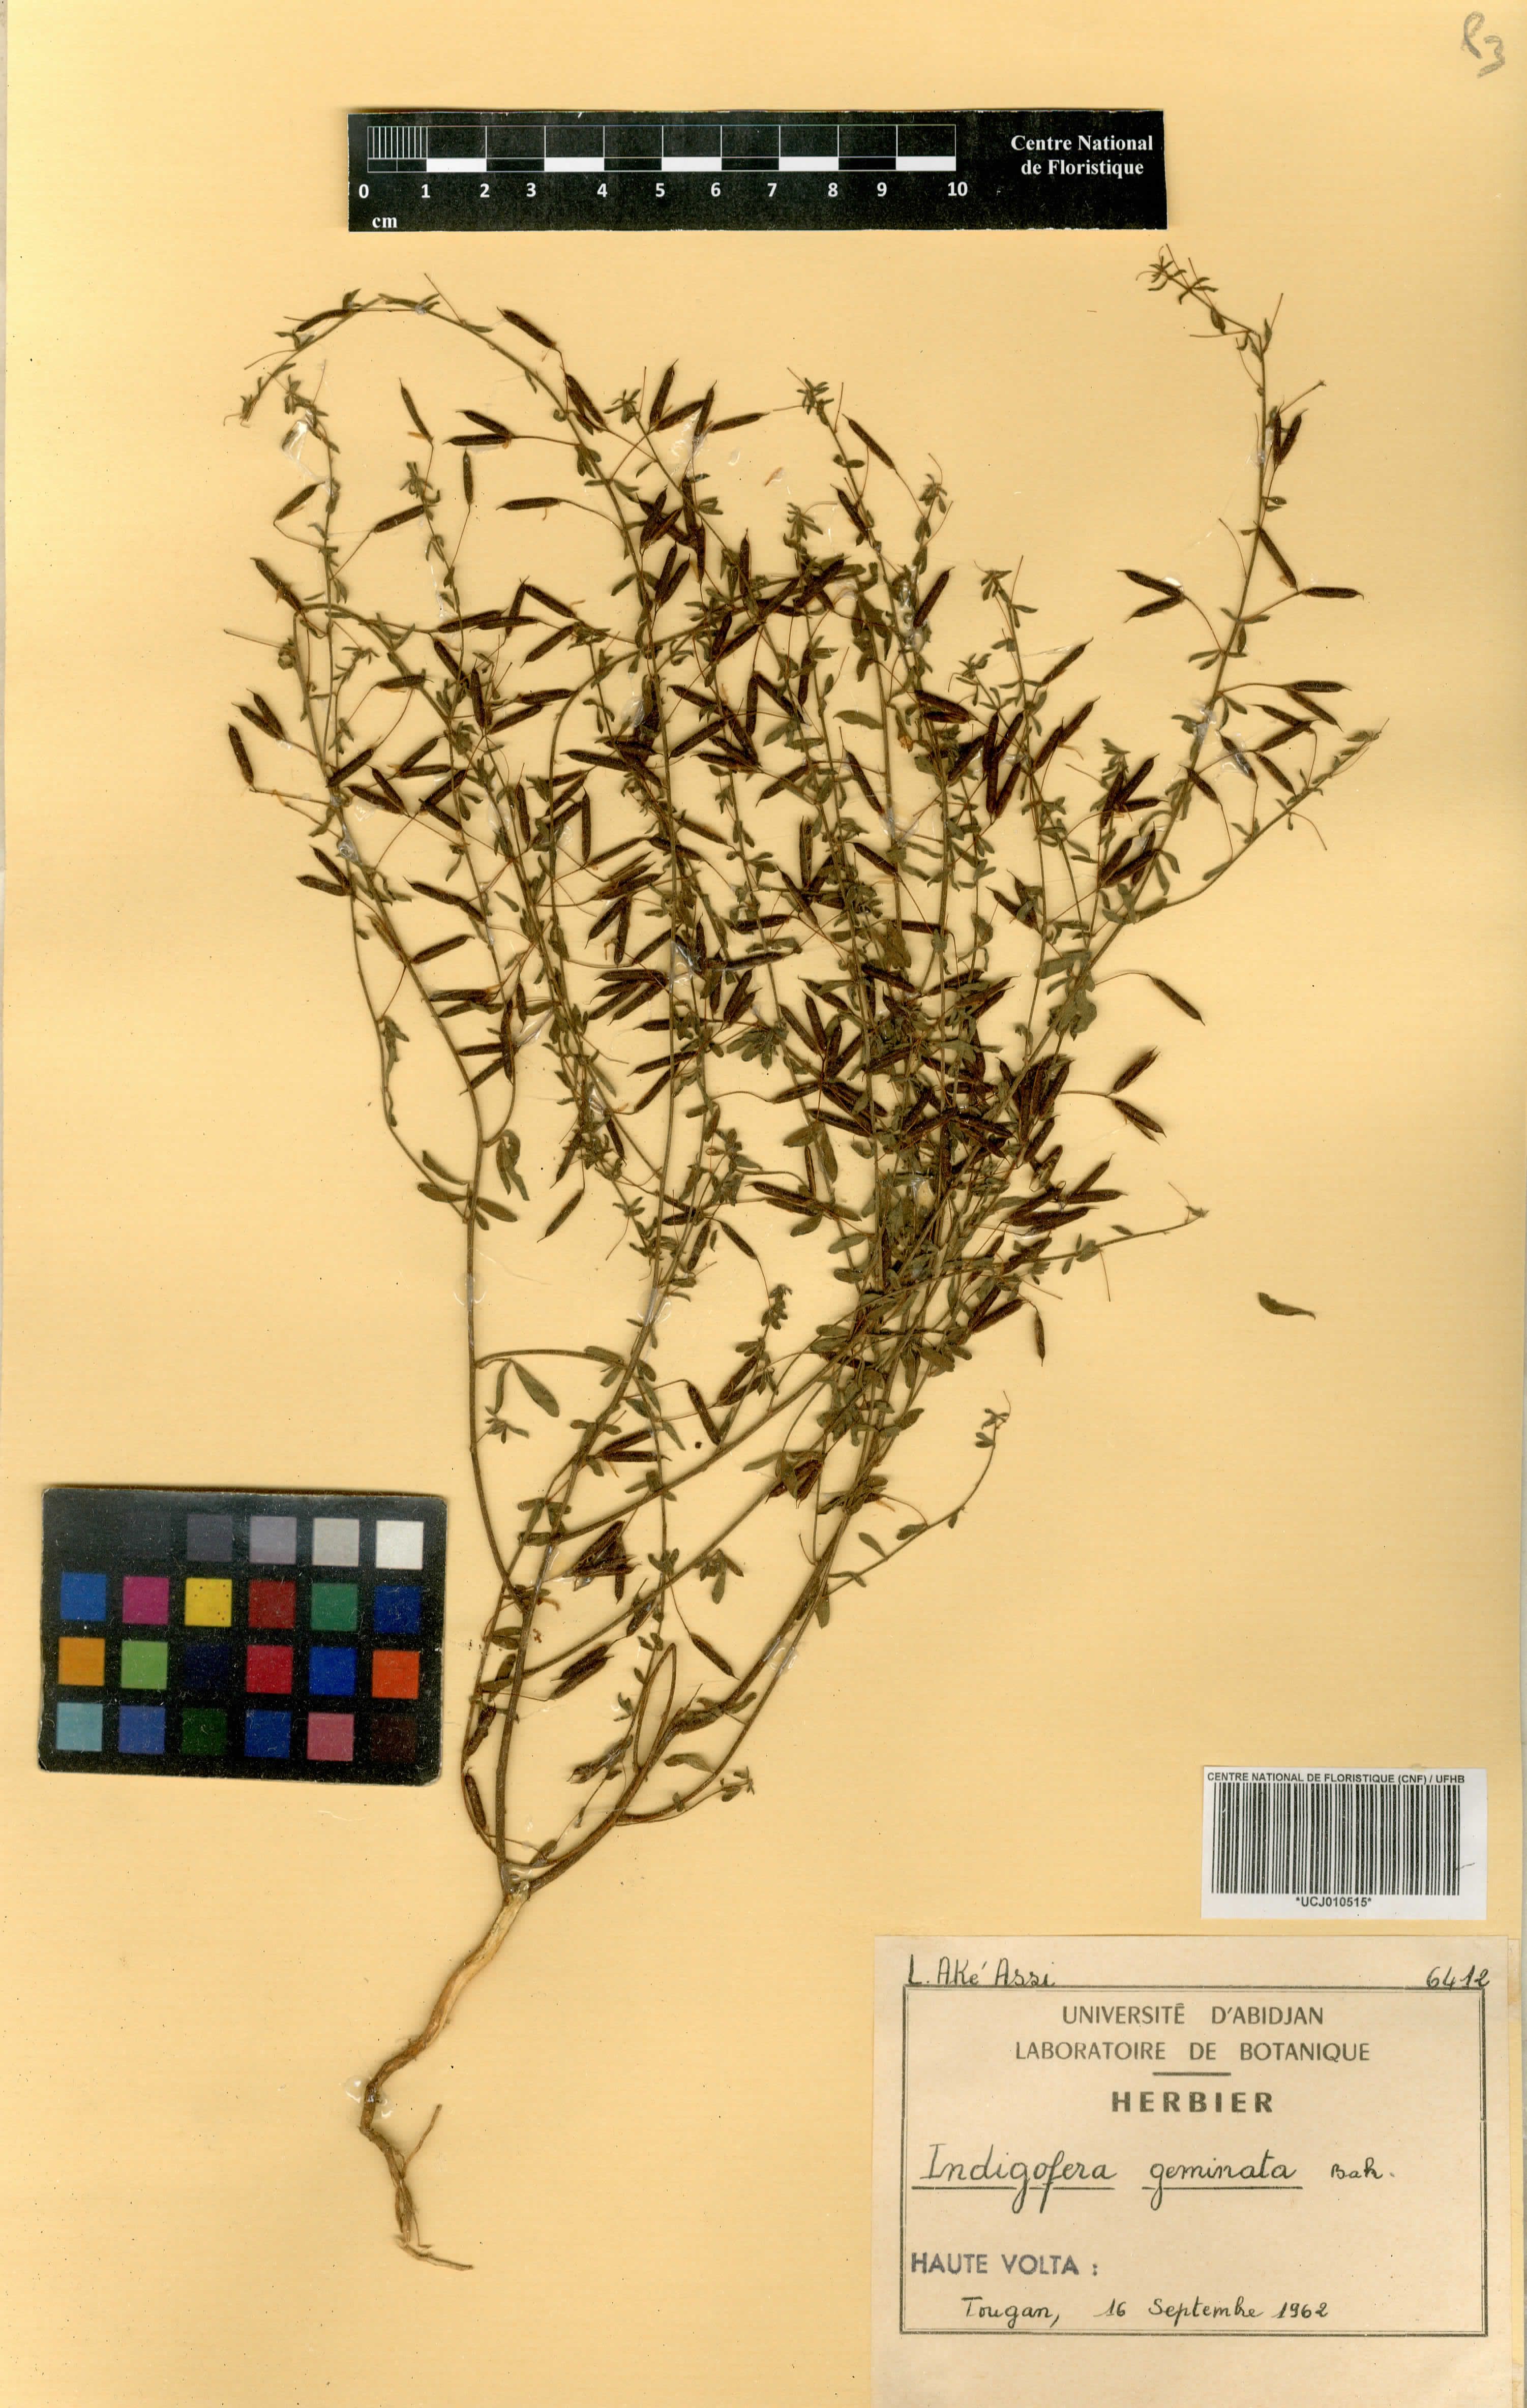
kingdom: Plantae
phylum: Tracheophyta
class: Magnoliopsida
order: Fabales
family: Fabaceae
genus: Indigofera
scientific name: Indigofera geminata
